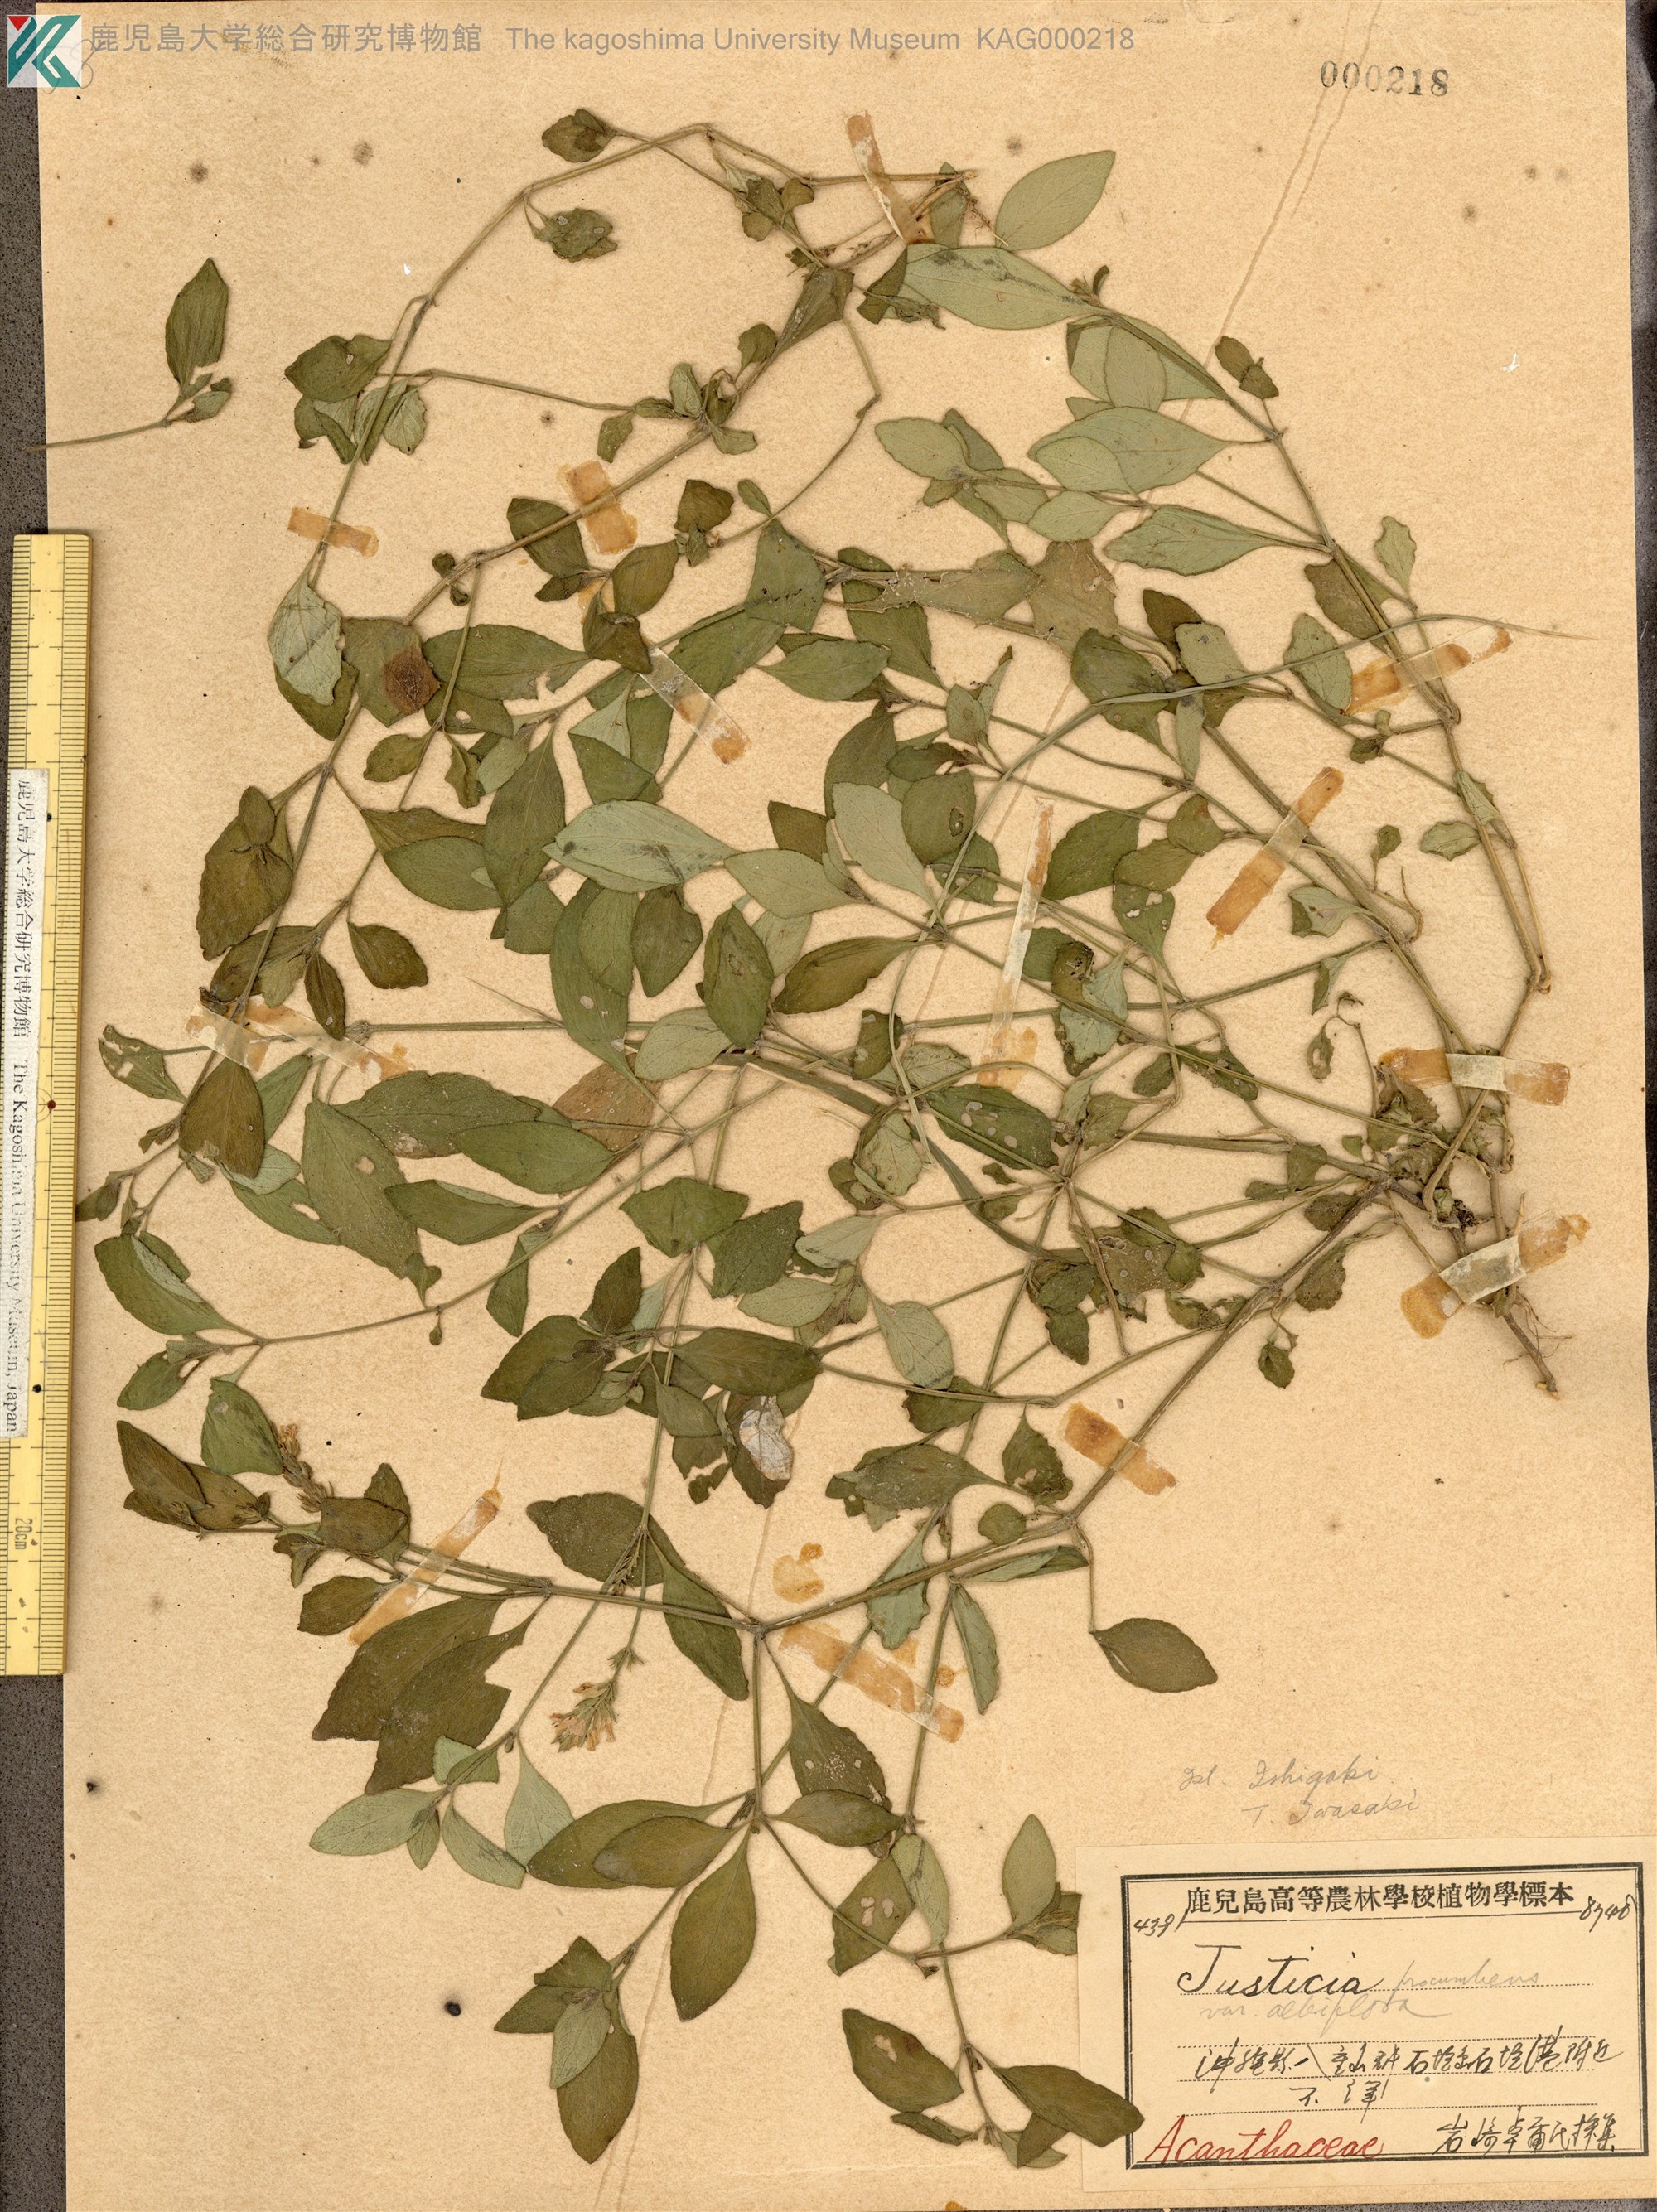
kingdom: Plantae
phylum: Tracheophyta
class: Magnoliopsida
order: Lamiales
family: Acanthaceae
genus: Rostellularia
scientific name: Rostellularia procumbens
